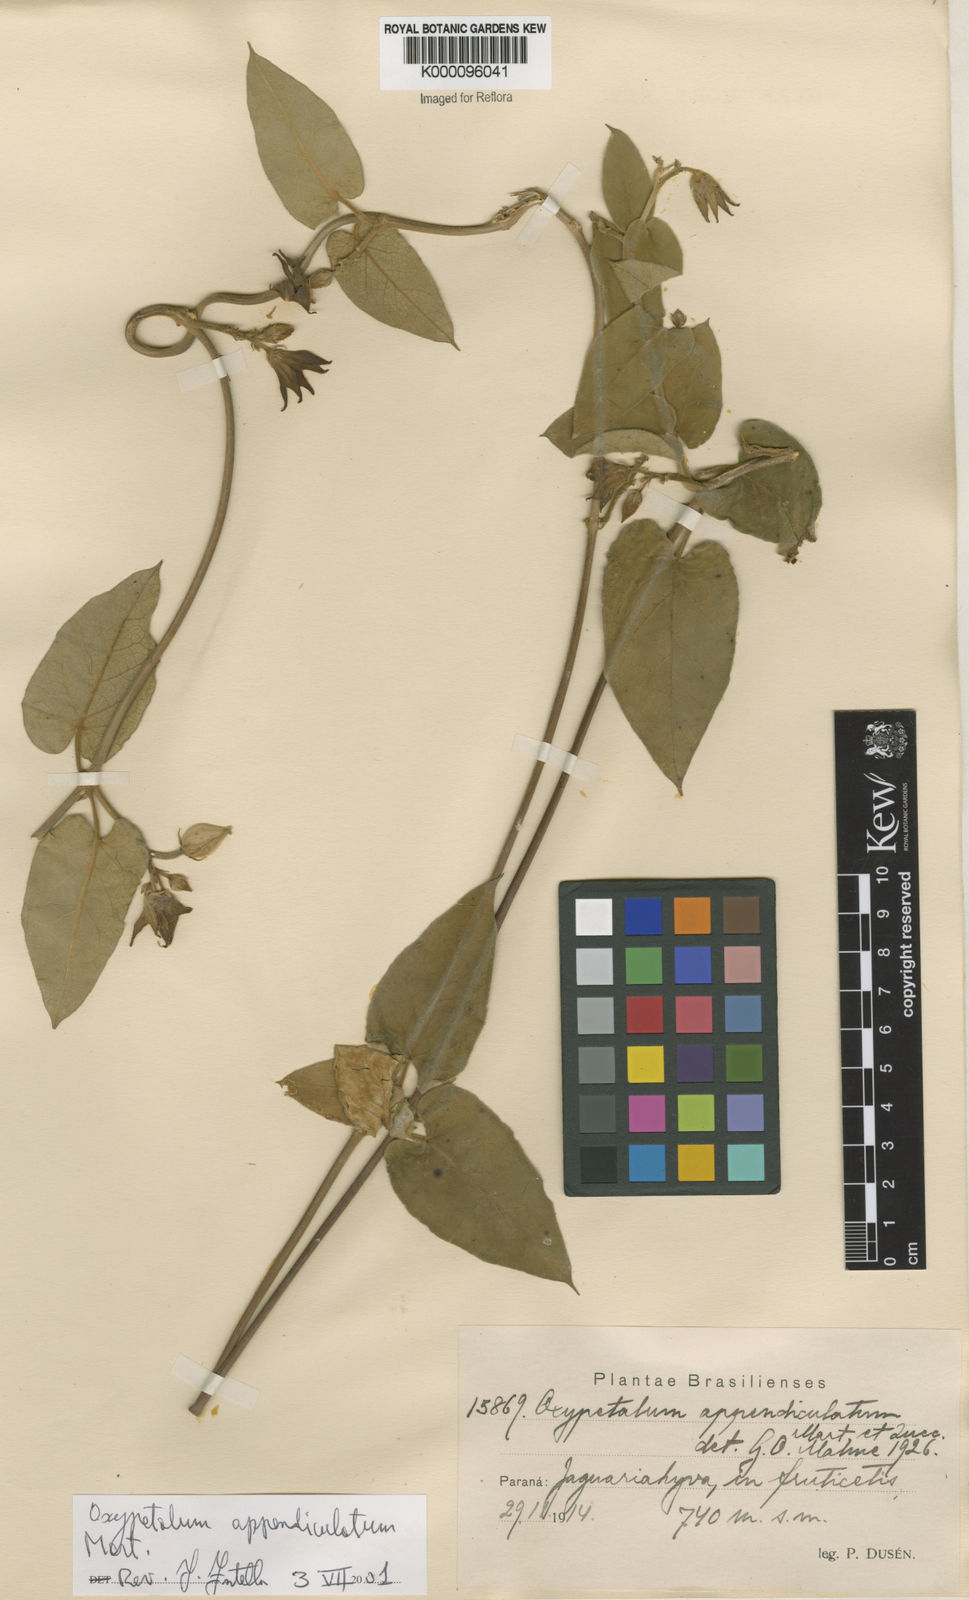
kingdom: Plantae
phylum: Tracheophyta
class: Magnoliopsida
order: Gentianales
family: Apocynaceae
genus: Oxypetalum
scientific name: Oxypetalum appendiculatum
